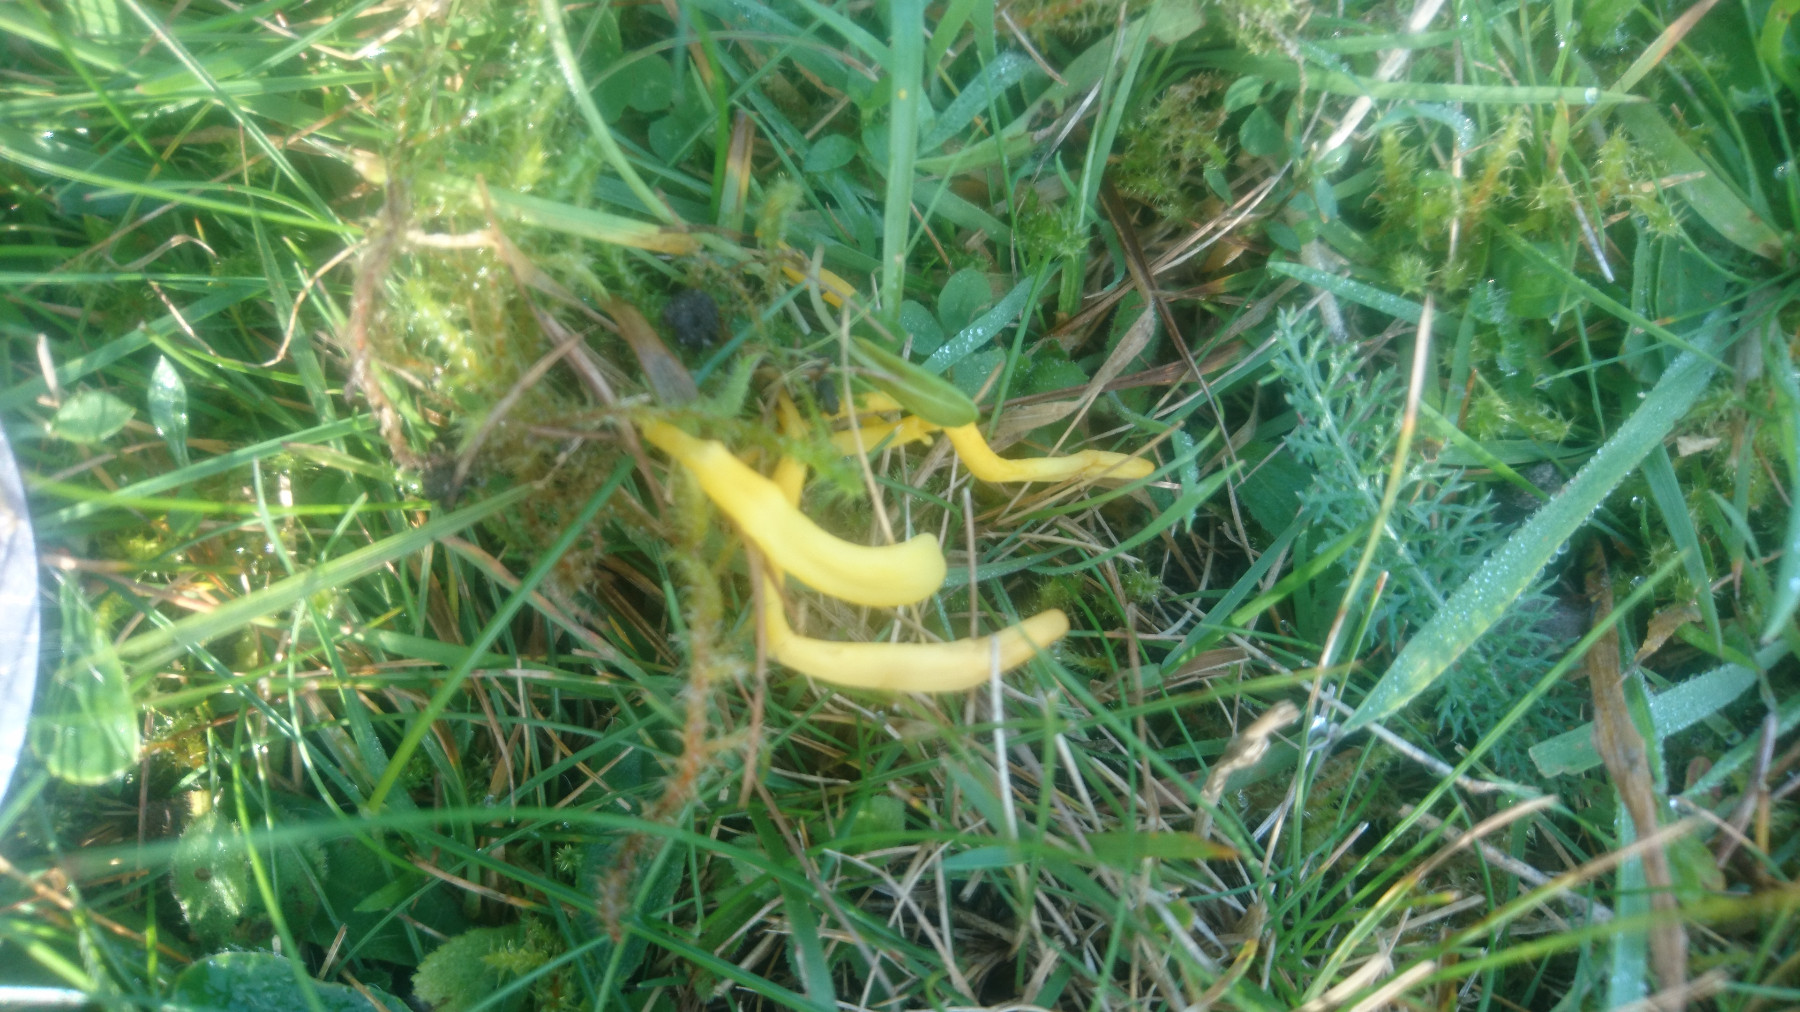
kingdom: Fungi
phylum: Basidiomycota
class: Agaricomycetes
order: Agaricales
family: Clavariaceae
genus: Clavulinopsis
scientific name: Clavulinopsis laeticolor
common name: flamme-køllesvamp
